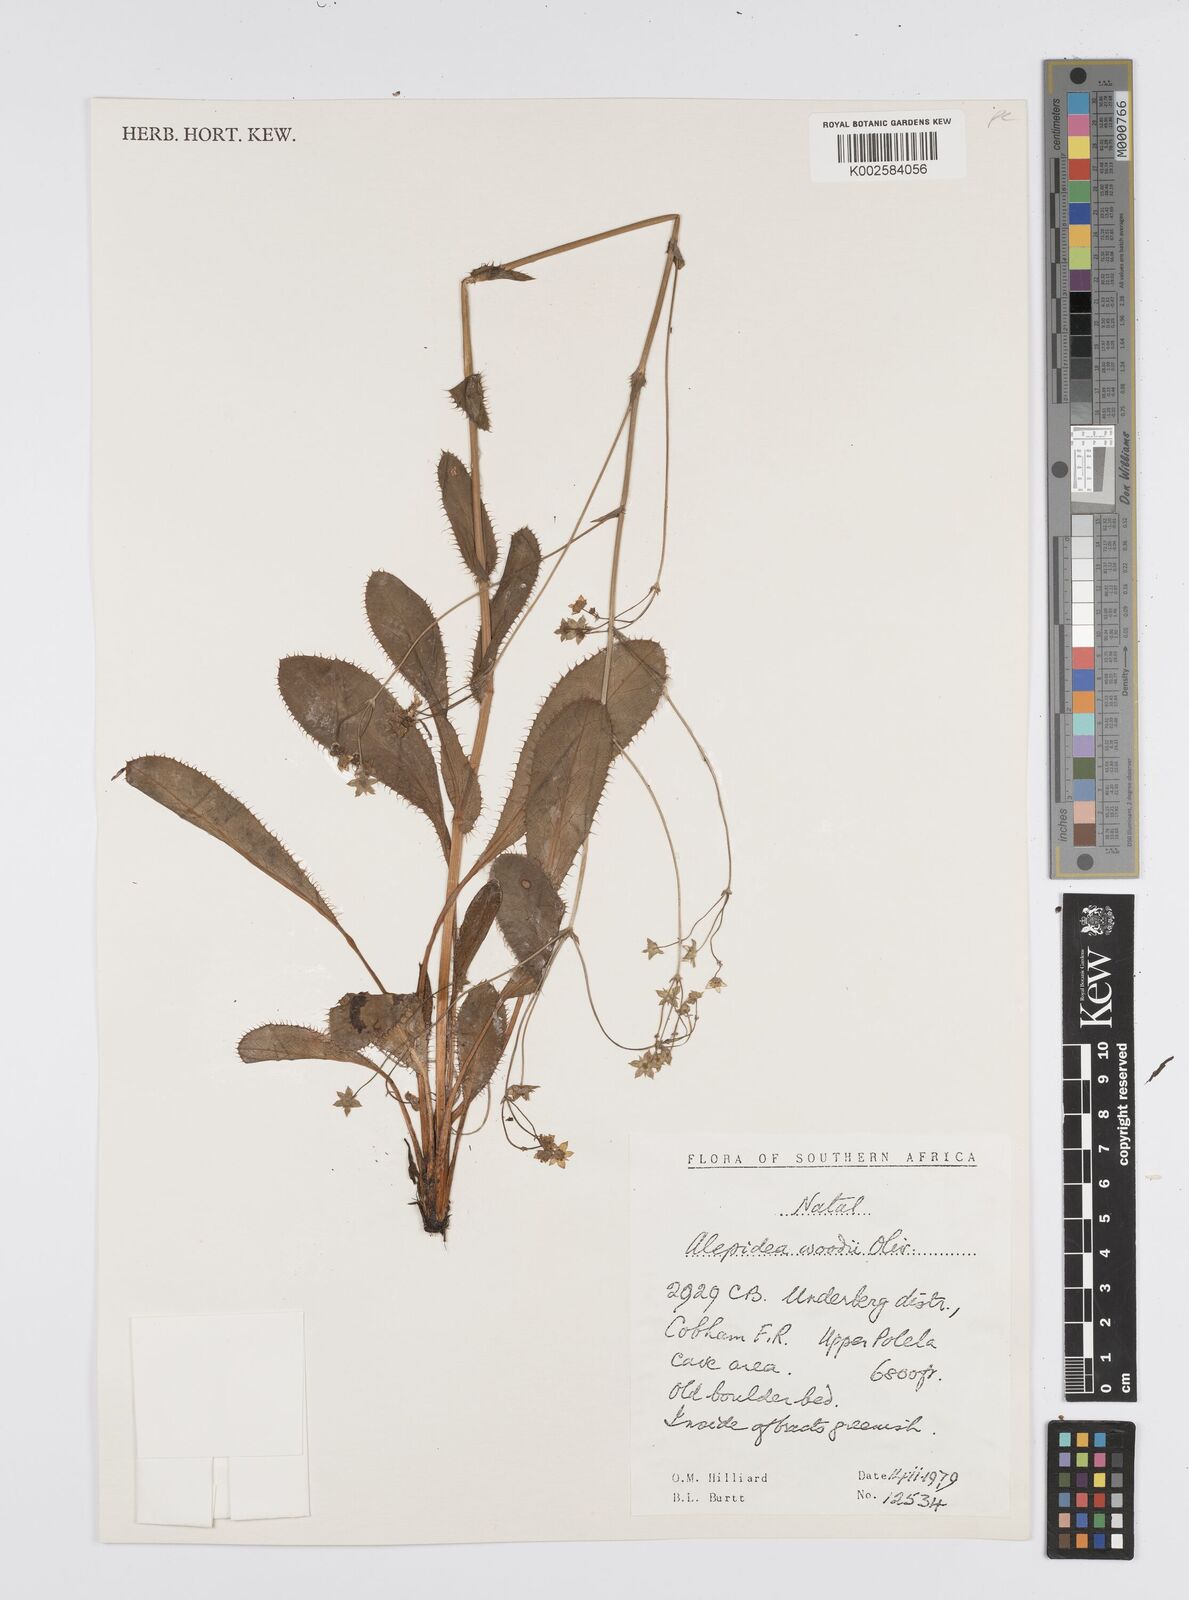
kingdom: Plantae
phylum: Tracheophyta
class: Magnoliopsida
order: Apiales
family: Apiaceae
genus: Alepidea
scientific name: Alepidea woodii
